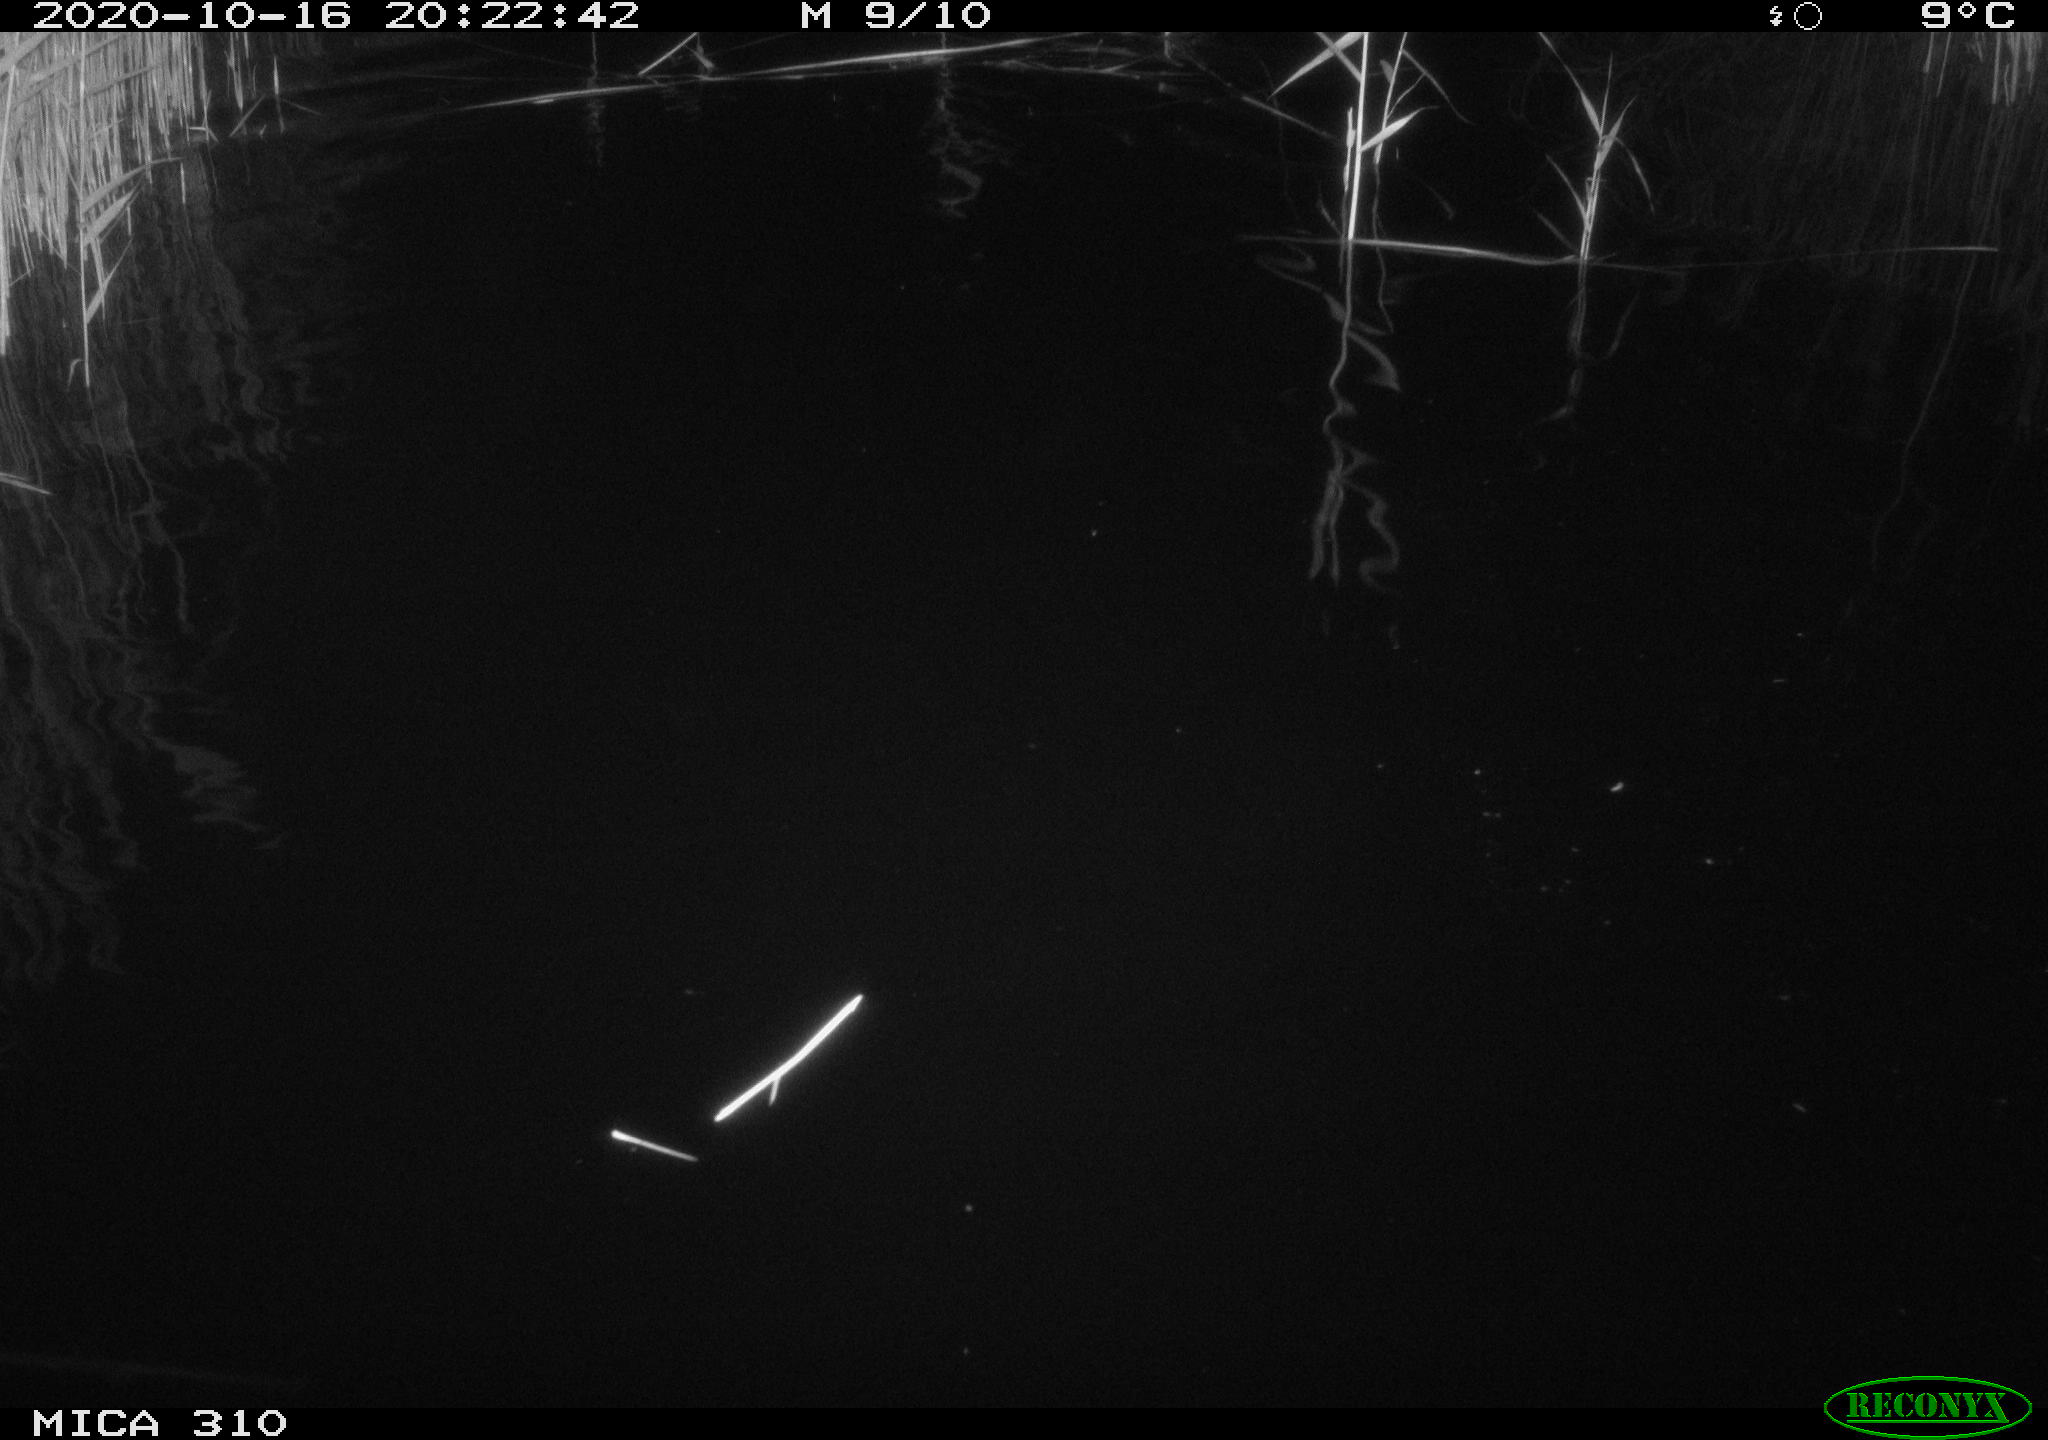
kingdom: Animalia
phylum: Chordata
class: Mammalia
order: Rodentia
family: Cricetidae
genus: Ondatra
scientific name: Ondatra zibethicus
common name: Muskrat
